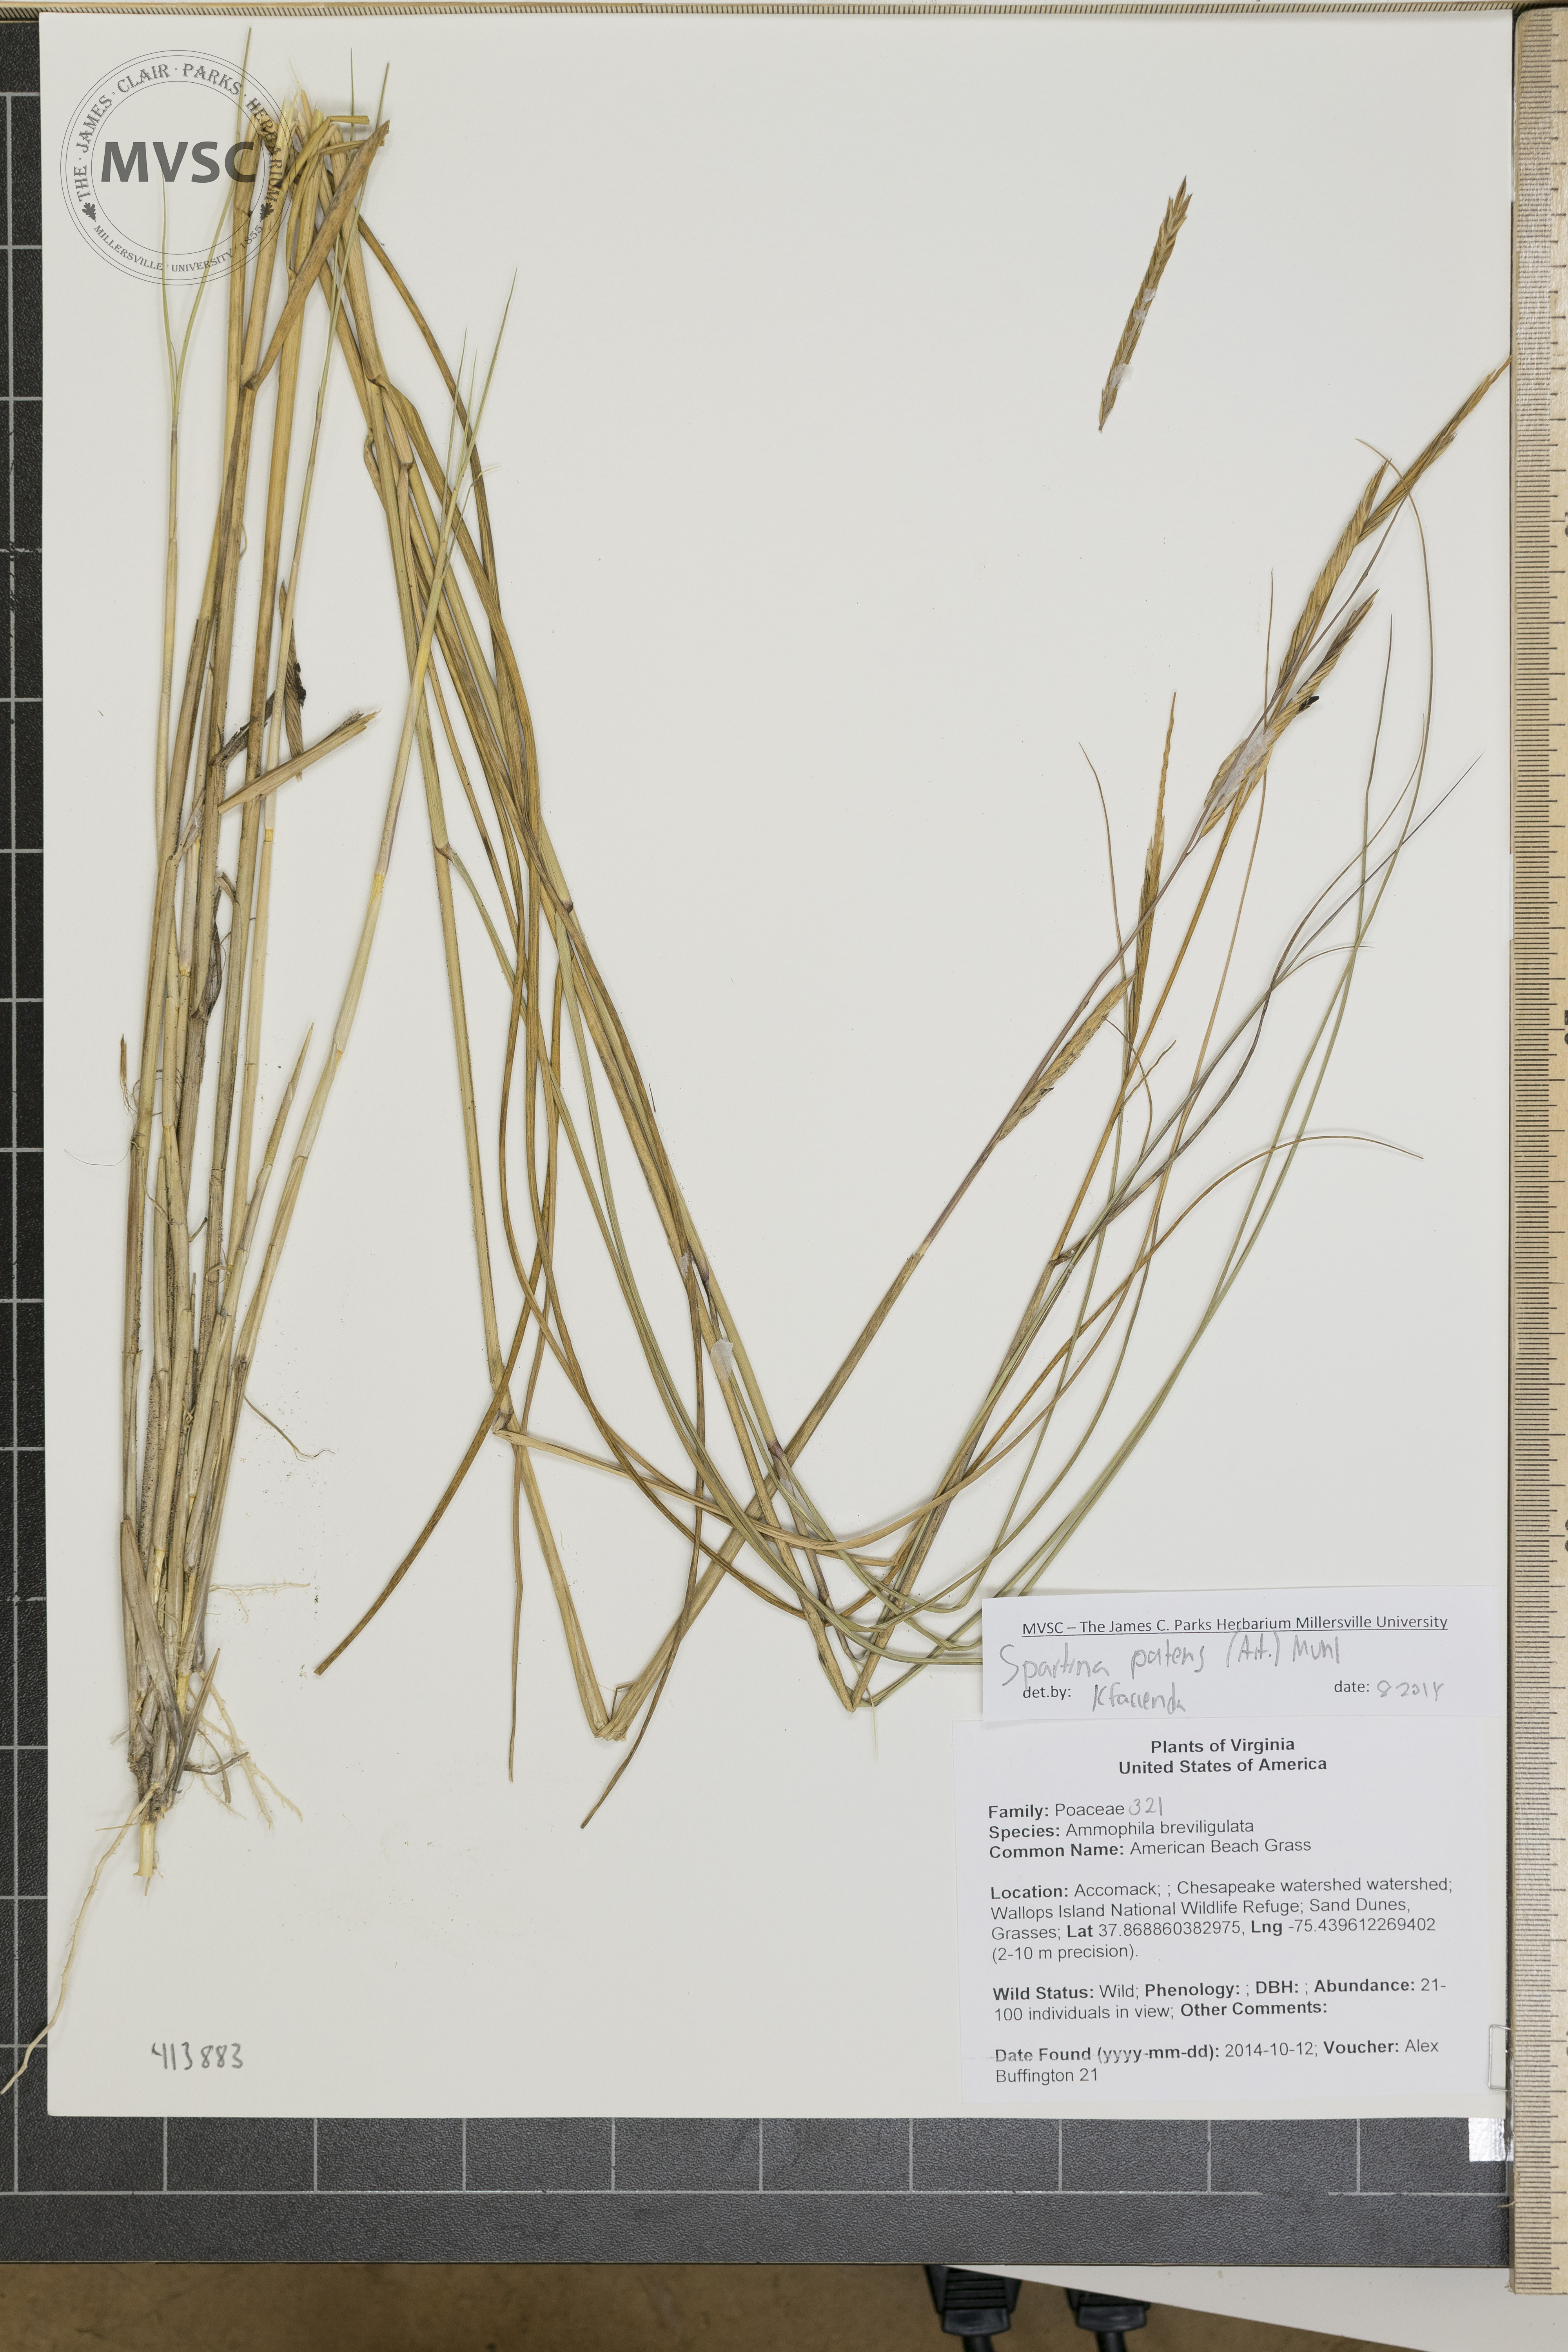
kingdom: Plantae
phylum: Tracheophyta
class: Liliopsida
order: Poales
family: Poaceae
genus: Sporobolus
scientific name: Sporobolus pumilus
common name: Highwater grass
